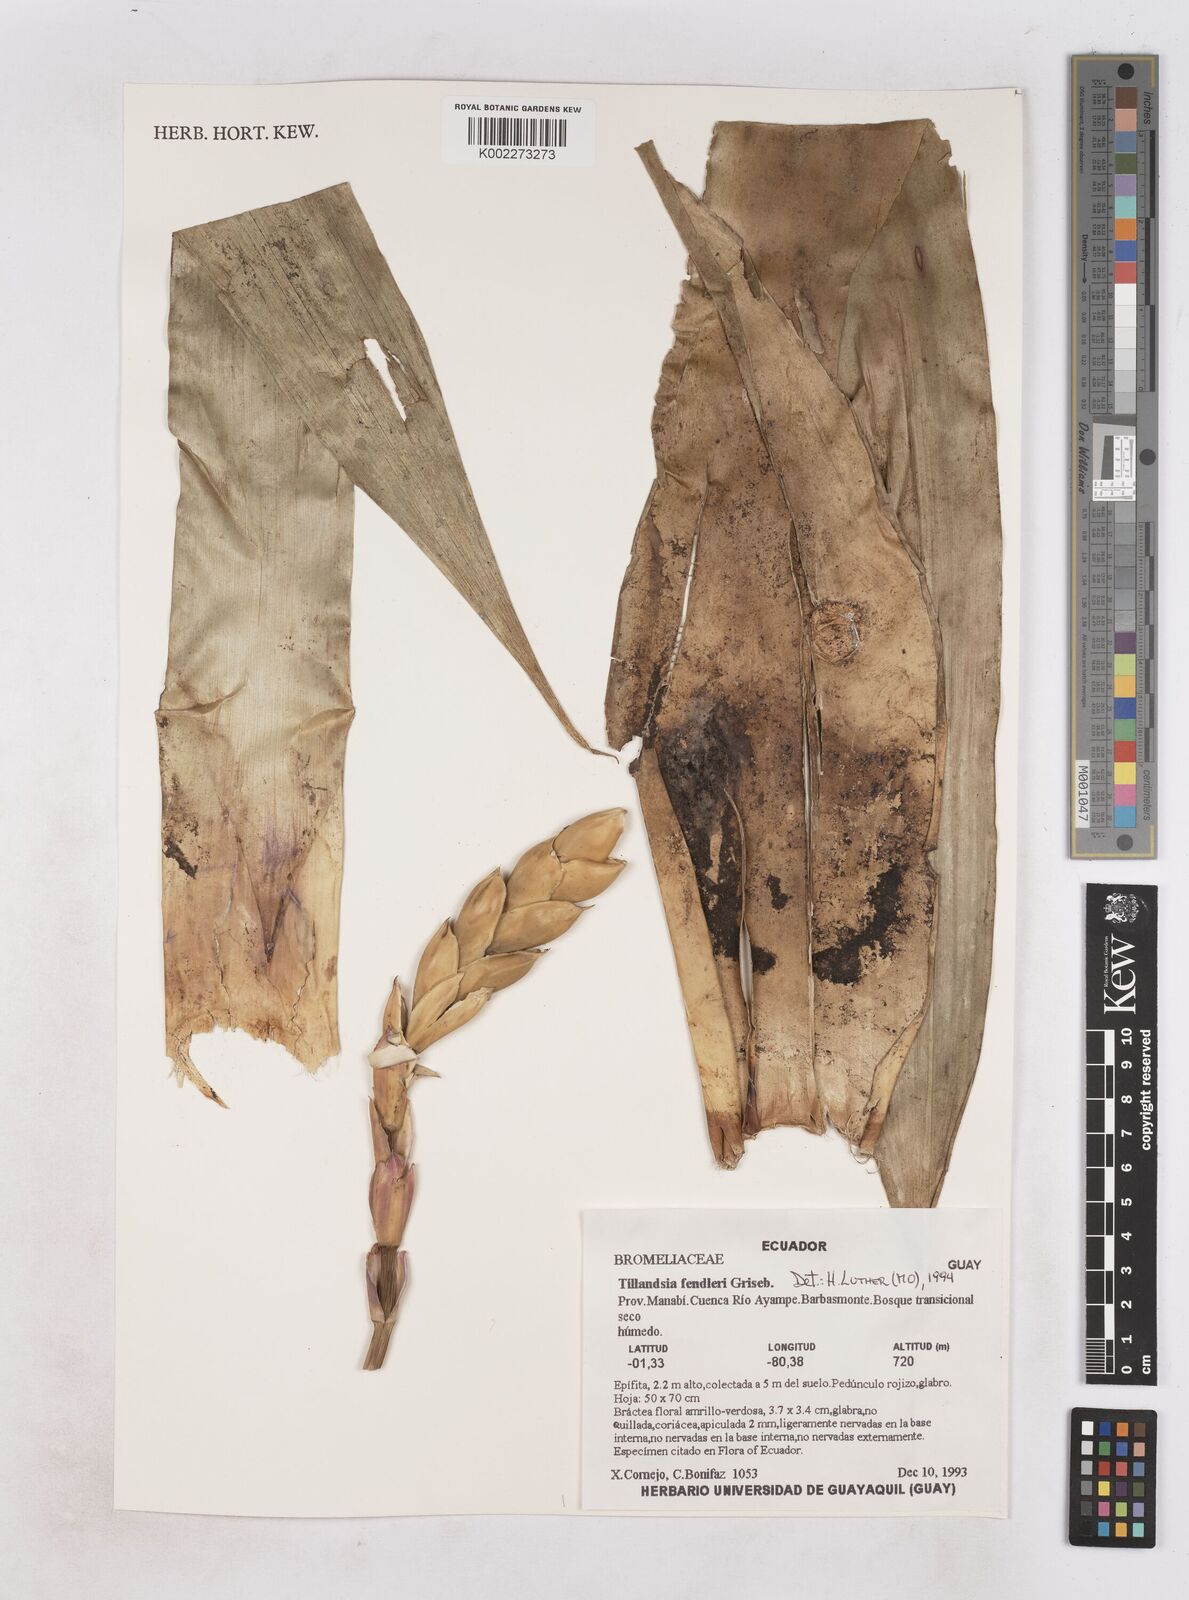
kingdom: Plantae
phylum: Tracheophyta
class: Liliopsida
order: Poales
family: Bromeliaceae
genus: Tillandsia
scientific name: Tillandsia fendleri
